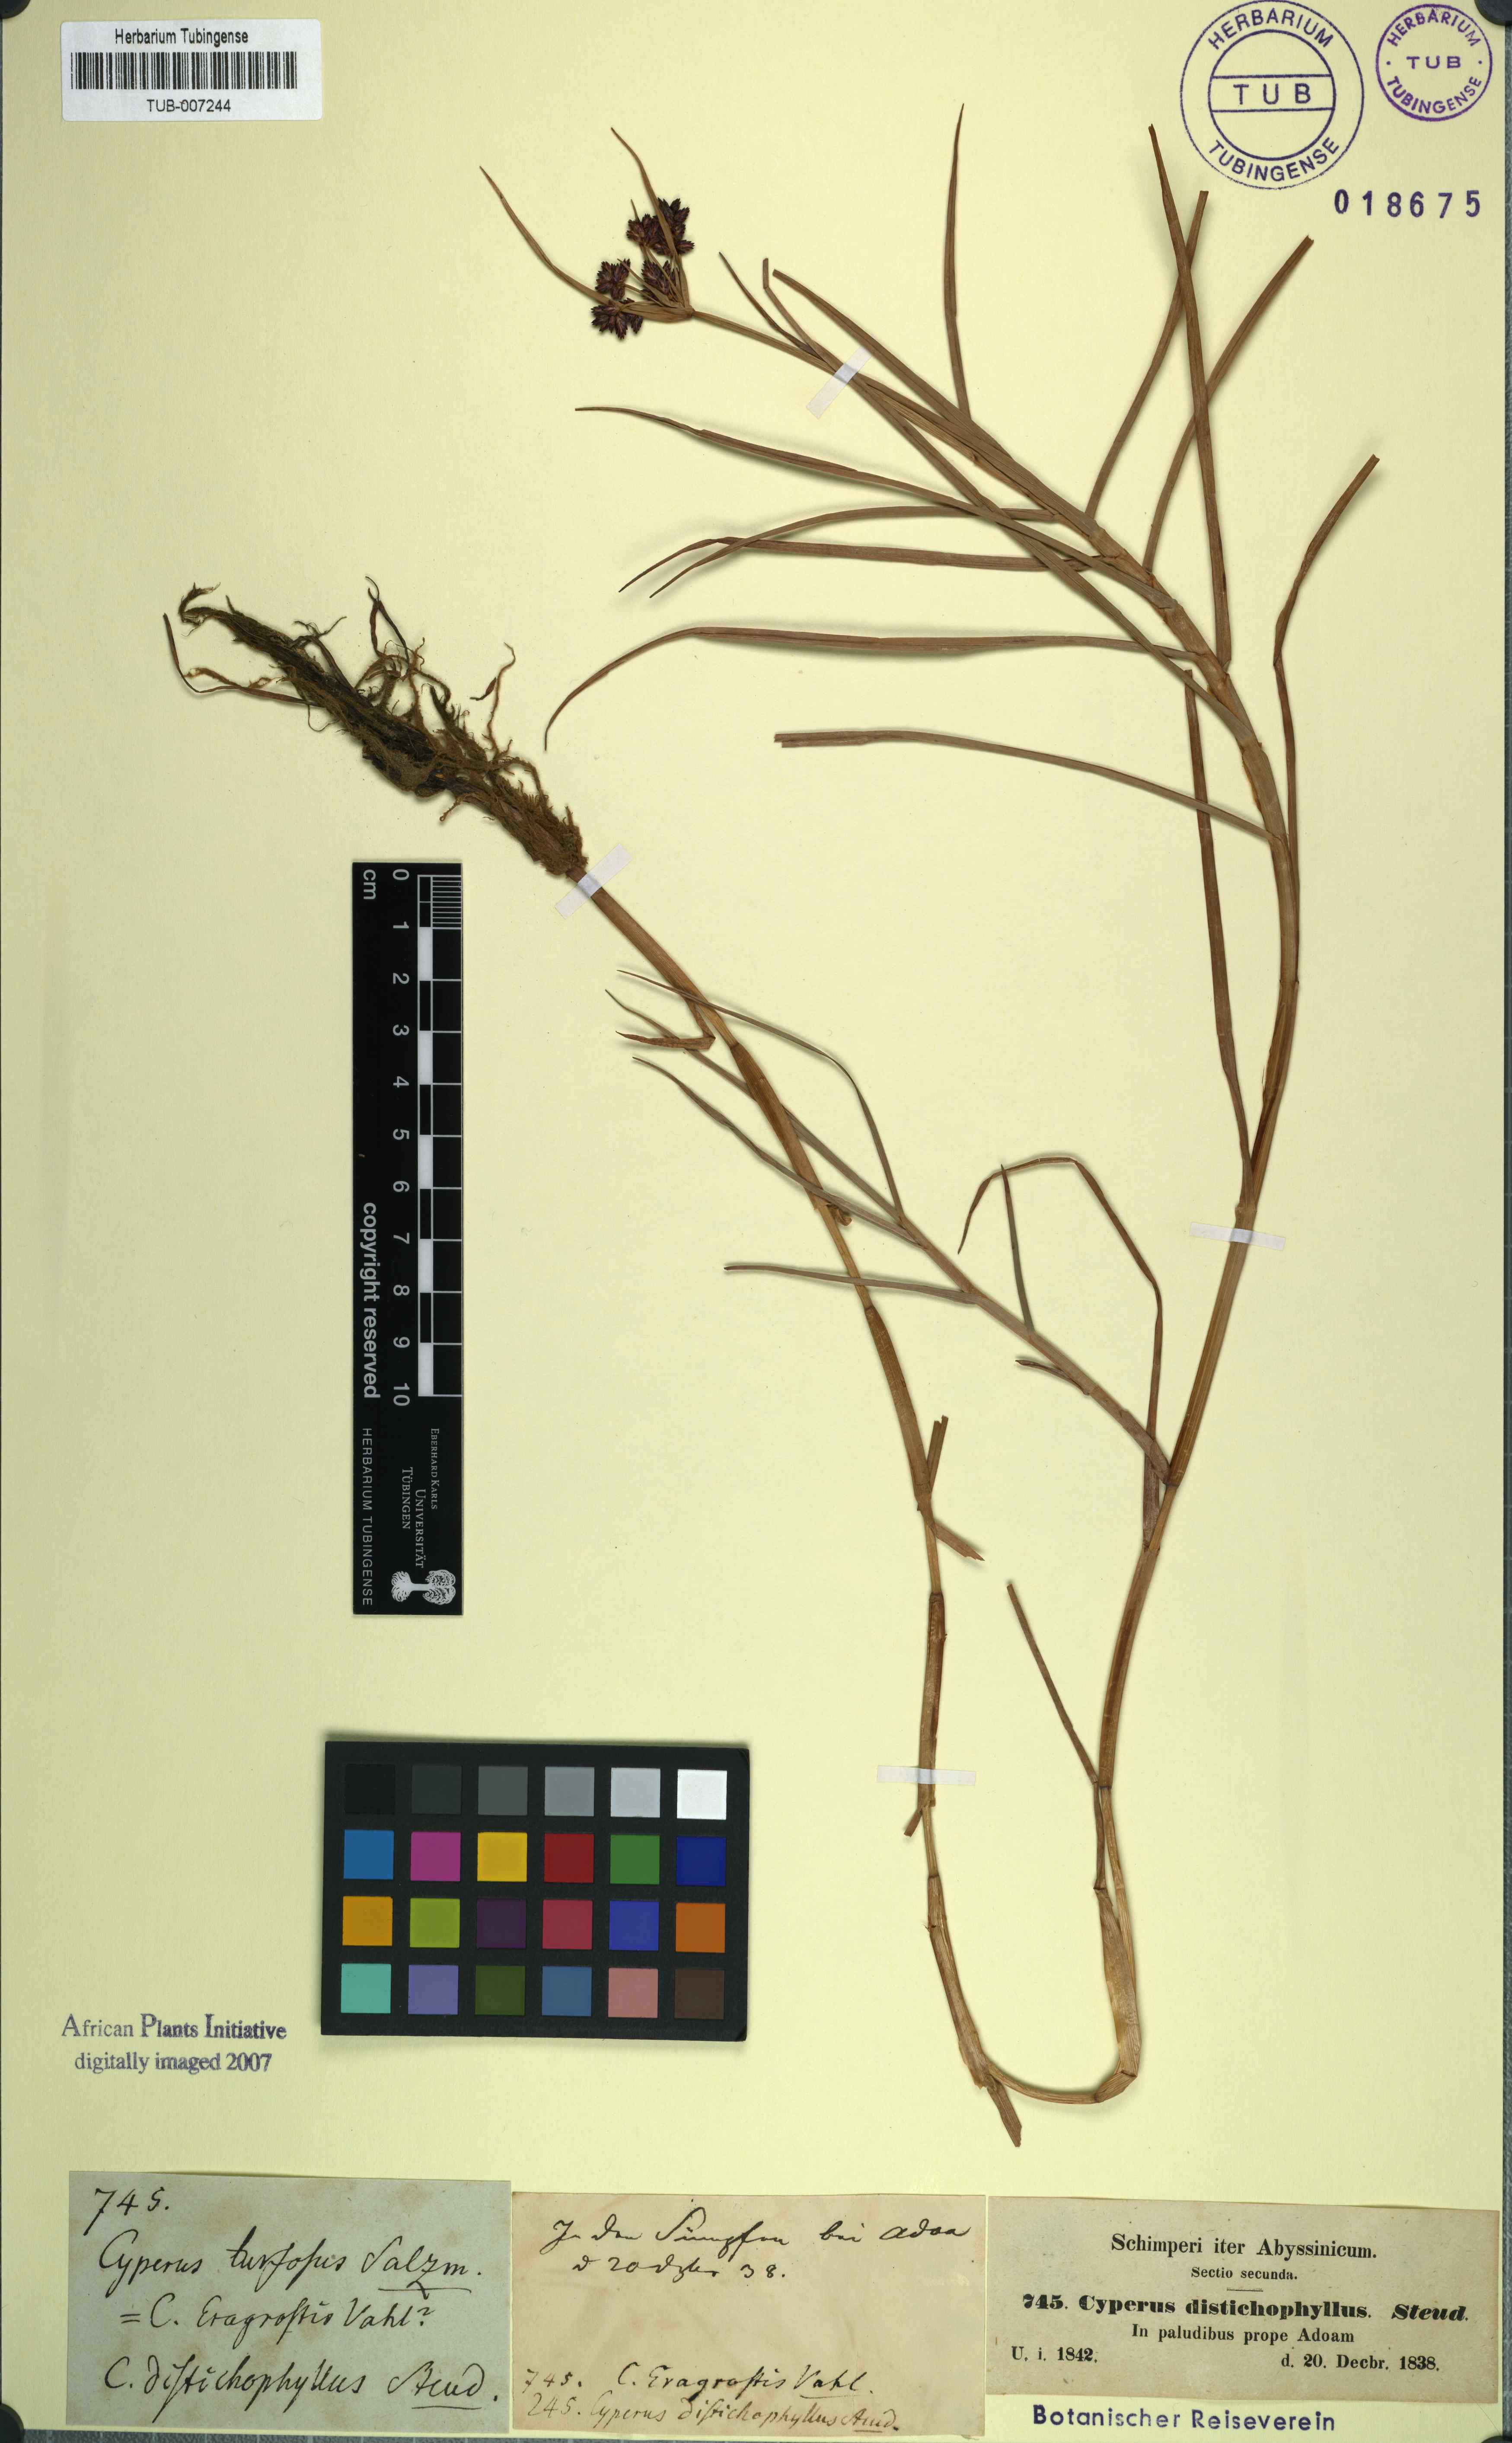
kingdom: Plantae
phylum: Tracheophyta
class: Liliopsida
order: Poales
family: Cyperaceae
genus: Cyperus
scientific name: Cyperus mundii
